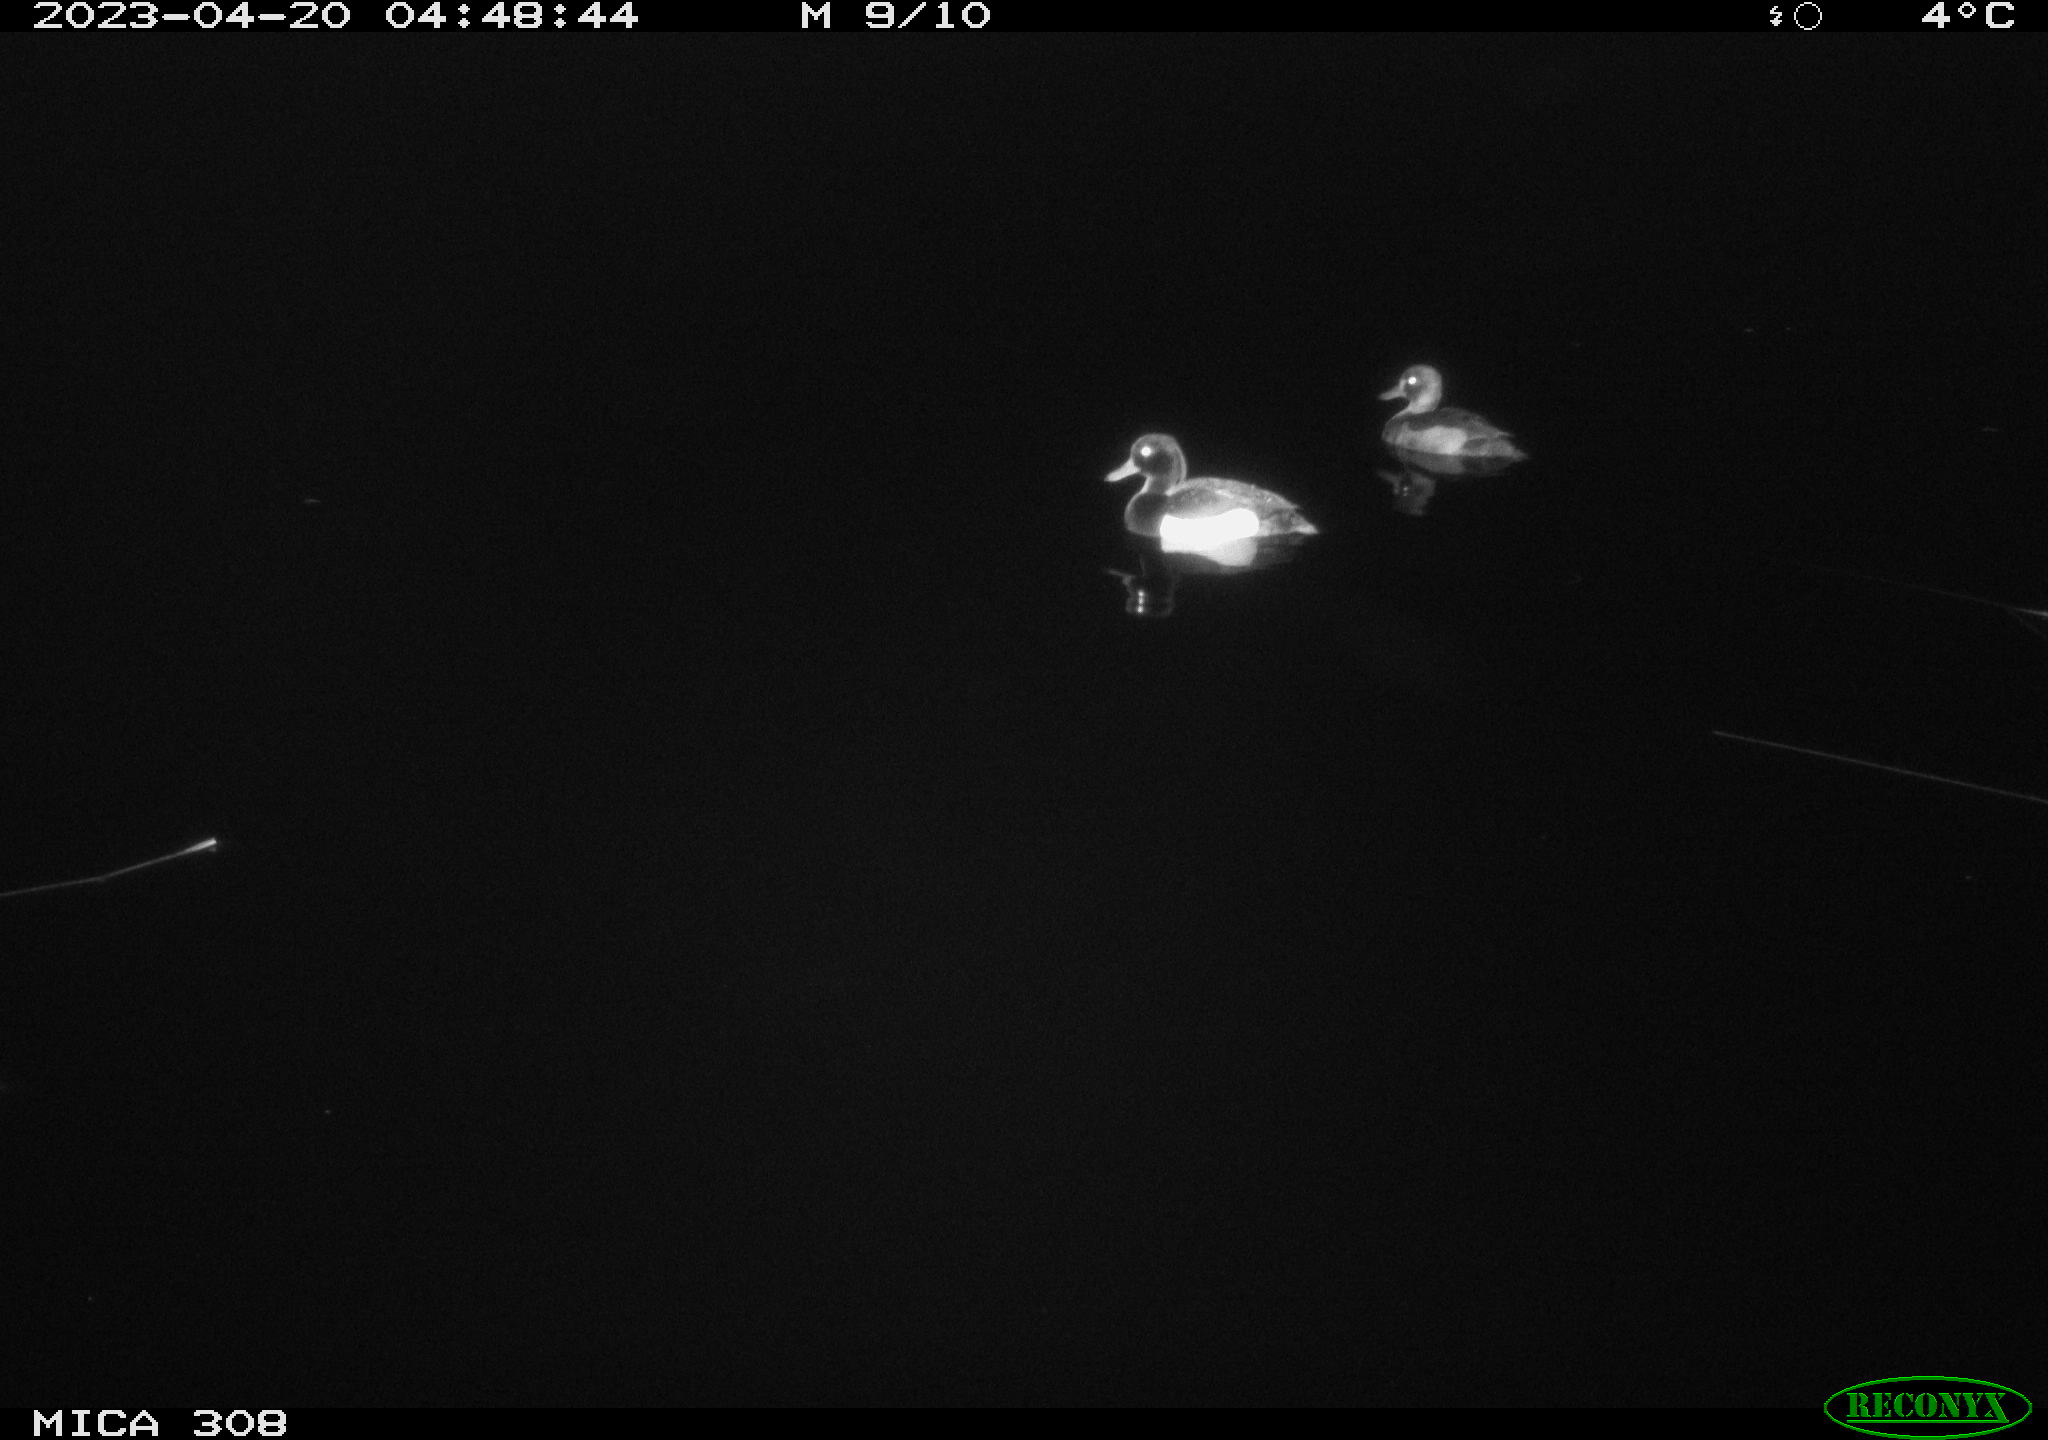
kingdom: Animalia
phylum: Chordata
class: Aves
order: Anseriformes
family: Anatidae
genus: Anas
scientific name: Anas
